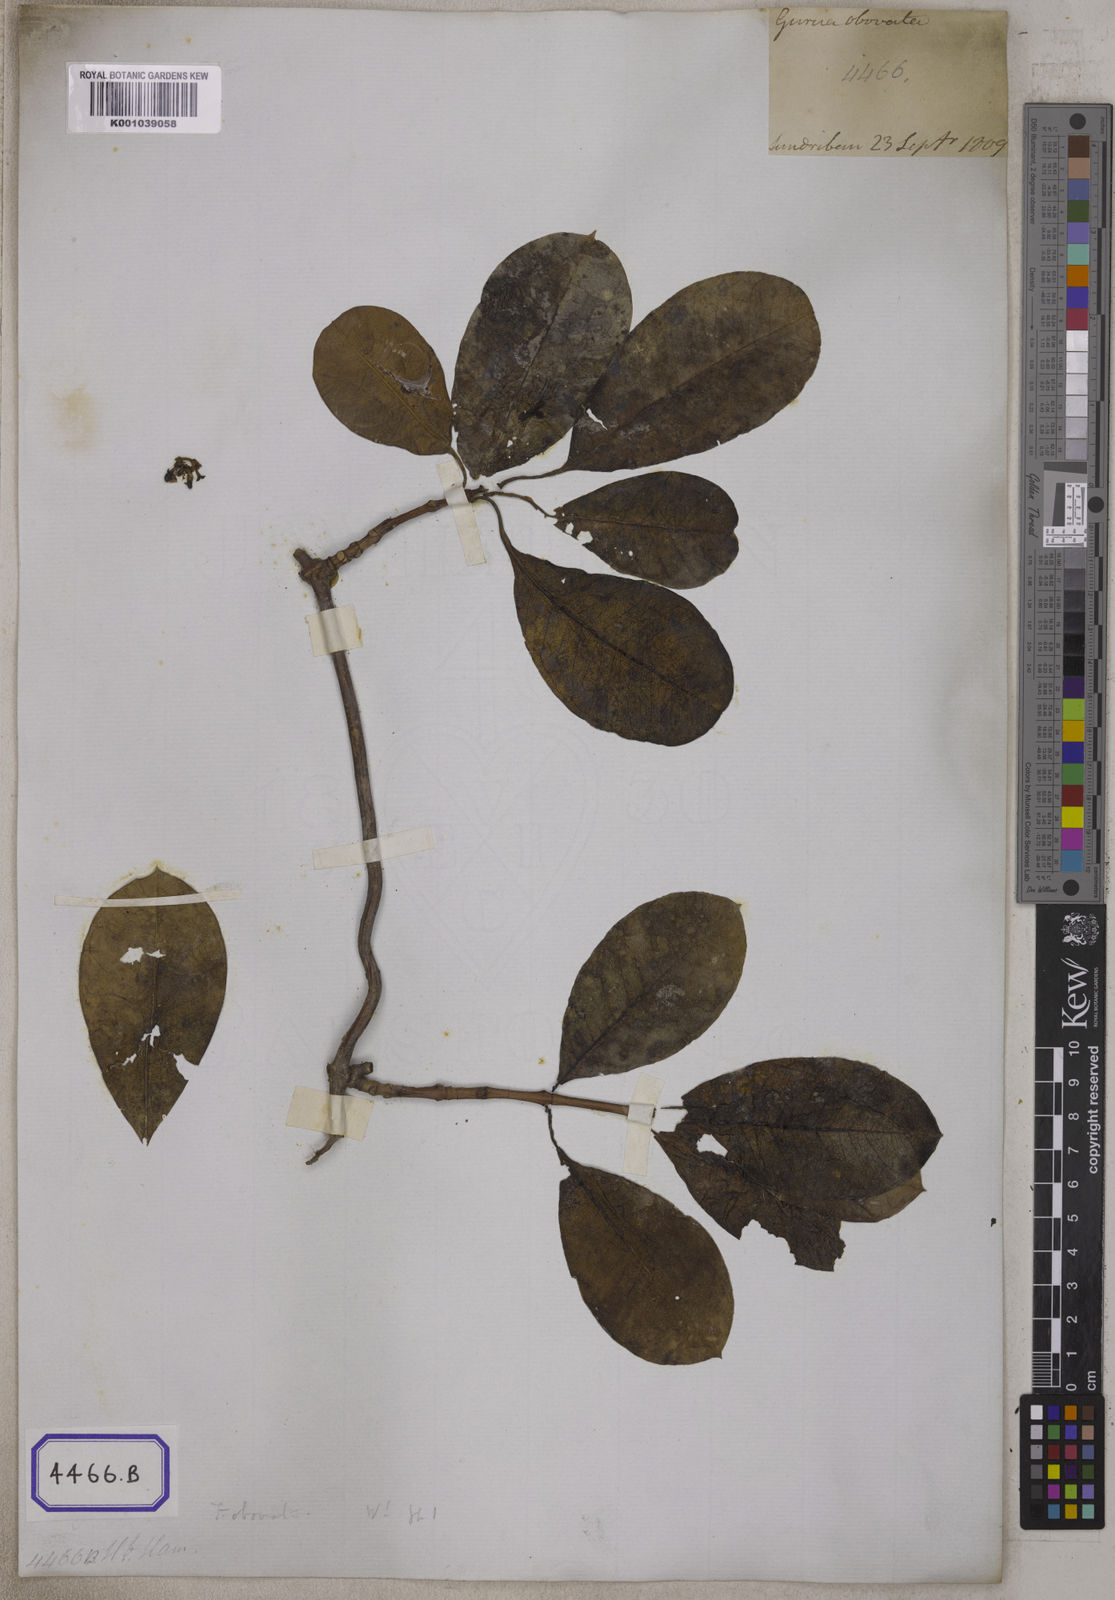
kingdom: Plantae
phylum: Tracheophyta
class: Magnoliopsida
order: Gentianales
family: Apocynaceae
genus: Finlaysonia
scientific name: Finlaysonia obovata
